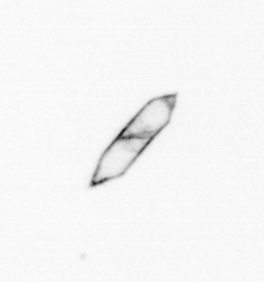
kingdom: Chromista
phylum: Ochrophyta
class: Bacillariophyceae
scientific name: Bacillariophyceae
